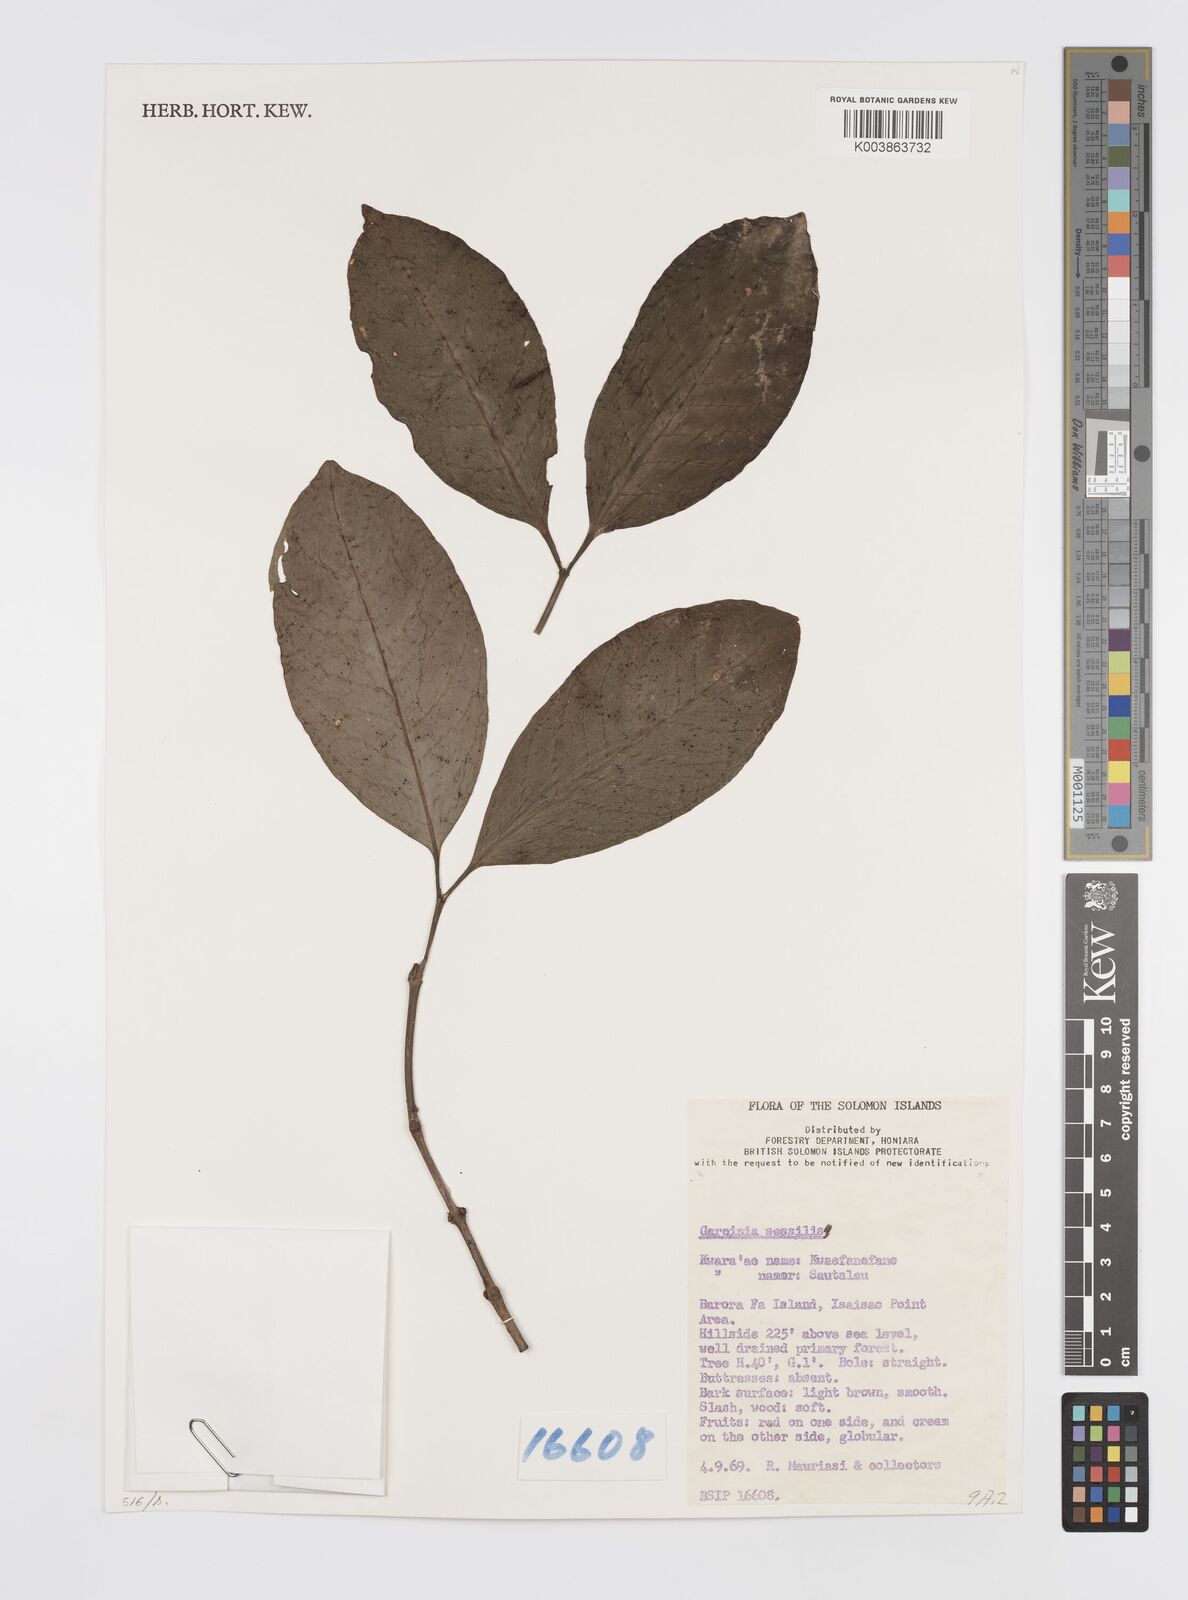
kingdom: Plantae
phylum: Tracheophyta
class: Magnoliopsida
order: Malpighiales
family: Clusiaceae
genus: Garcinia
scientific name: Garcinia sessilis
